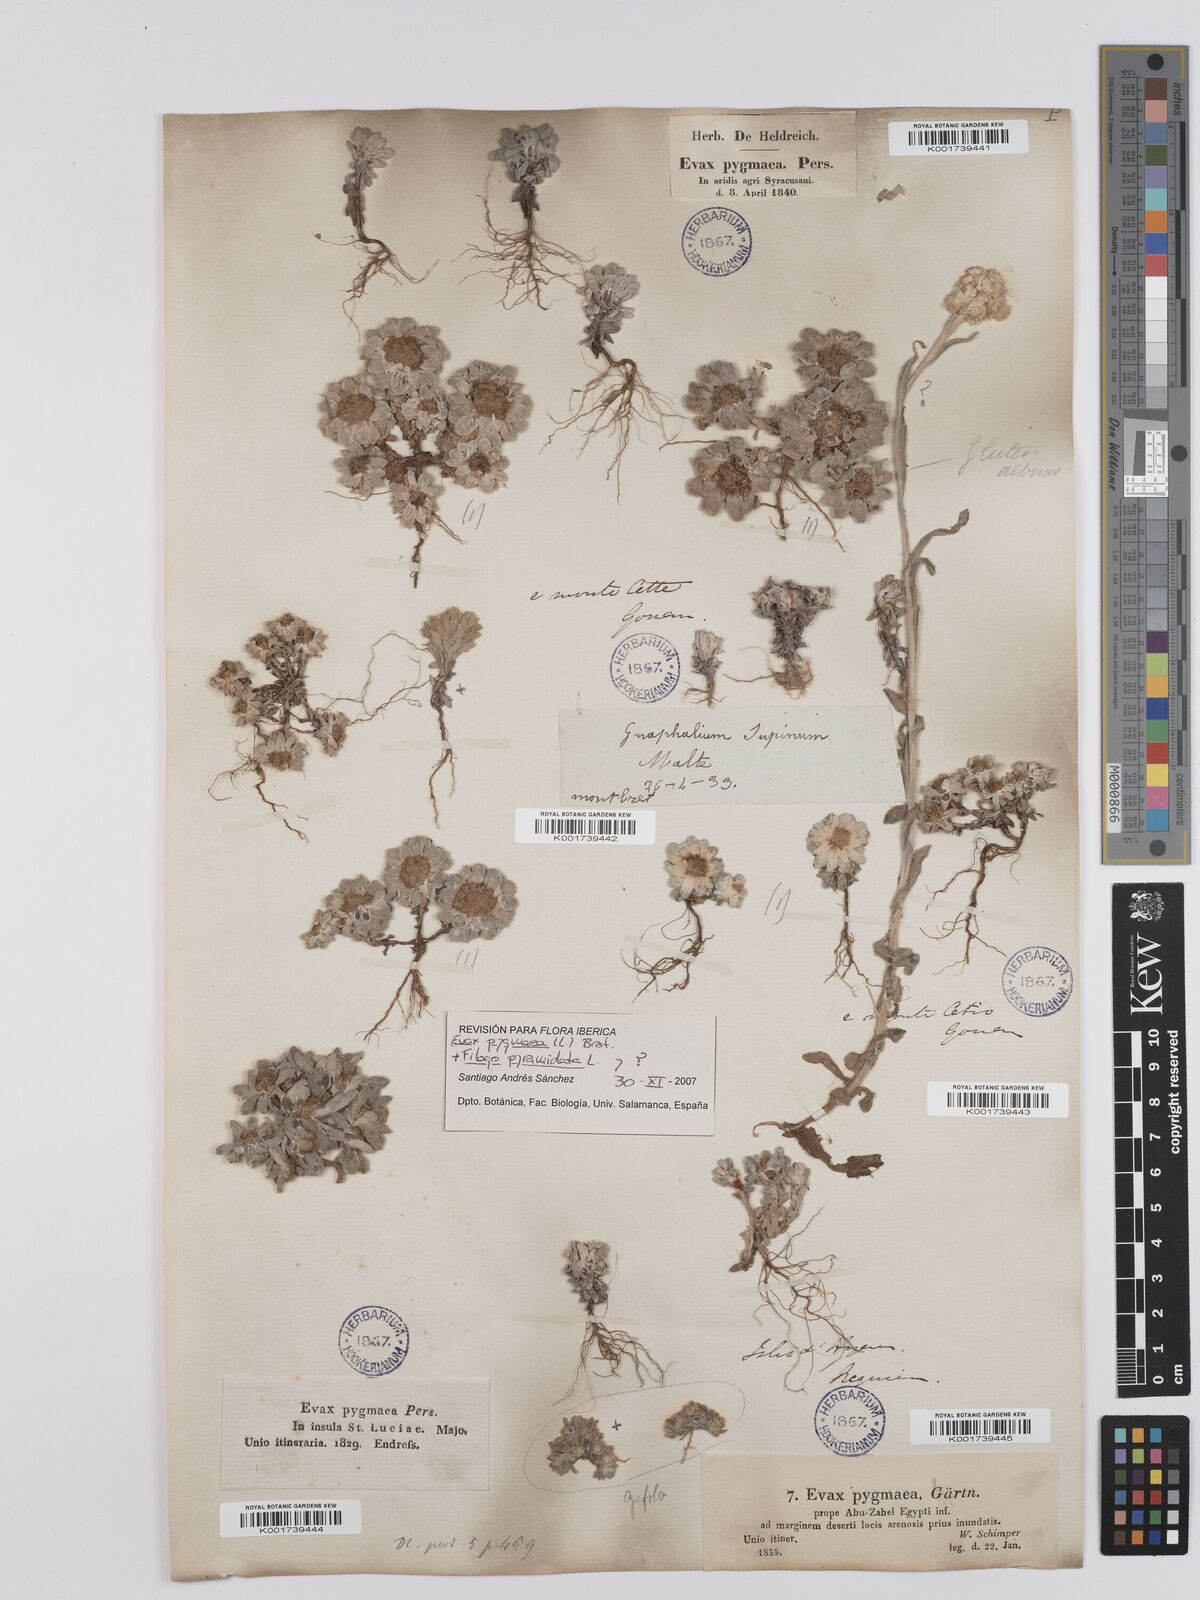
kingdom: Plantae
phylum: Tracheophyta
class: Magnoliopsida
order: Asterales
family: Asteraceae
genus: Filago
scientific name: Filago pygmaea
